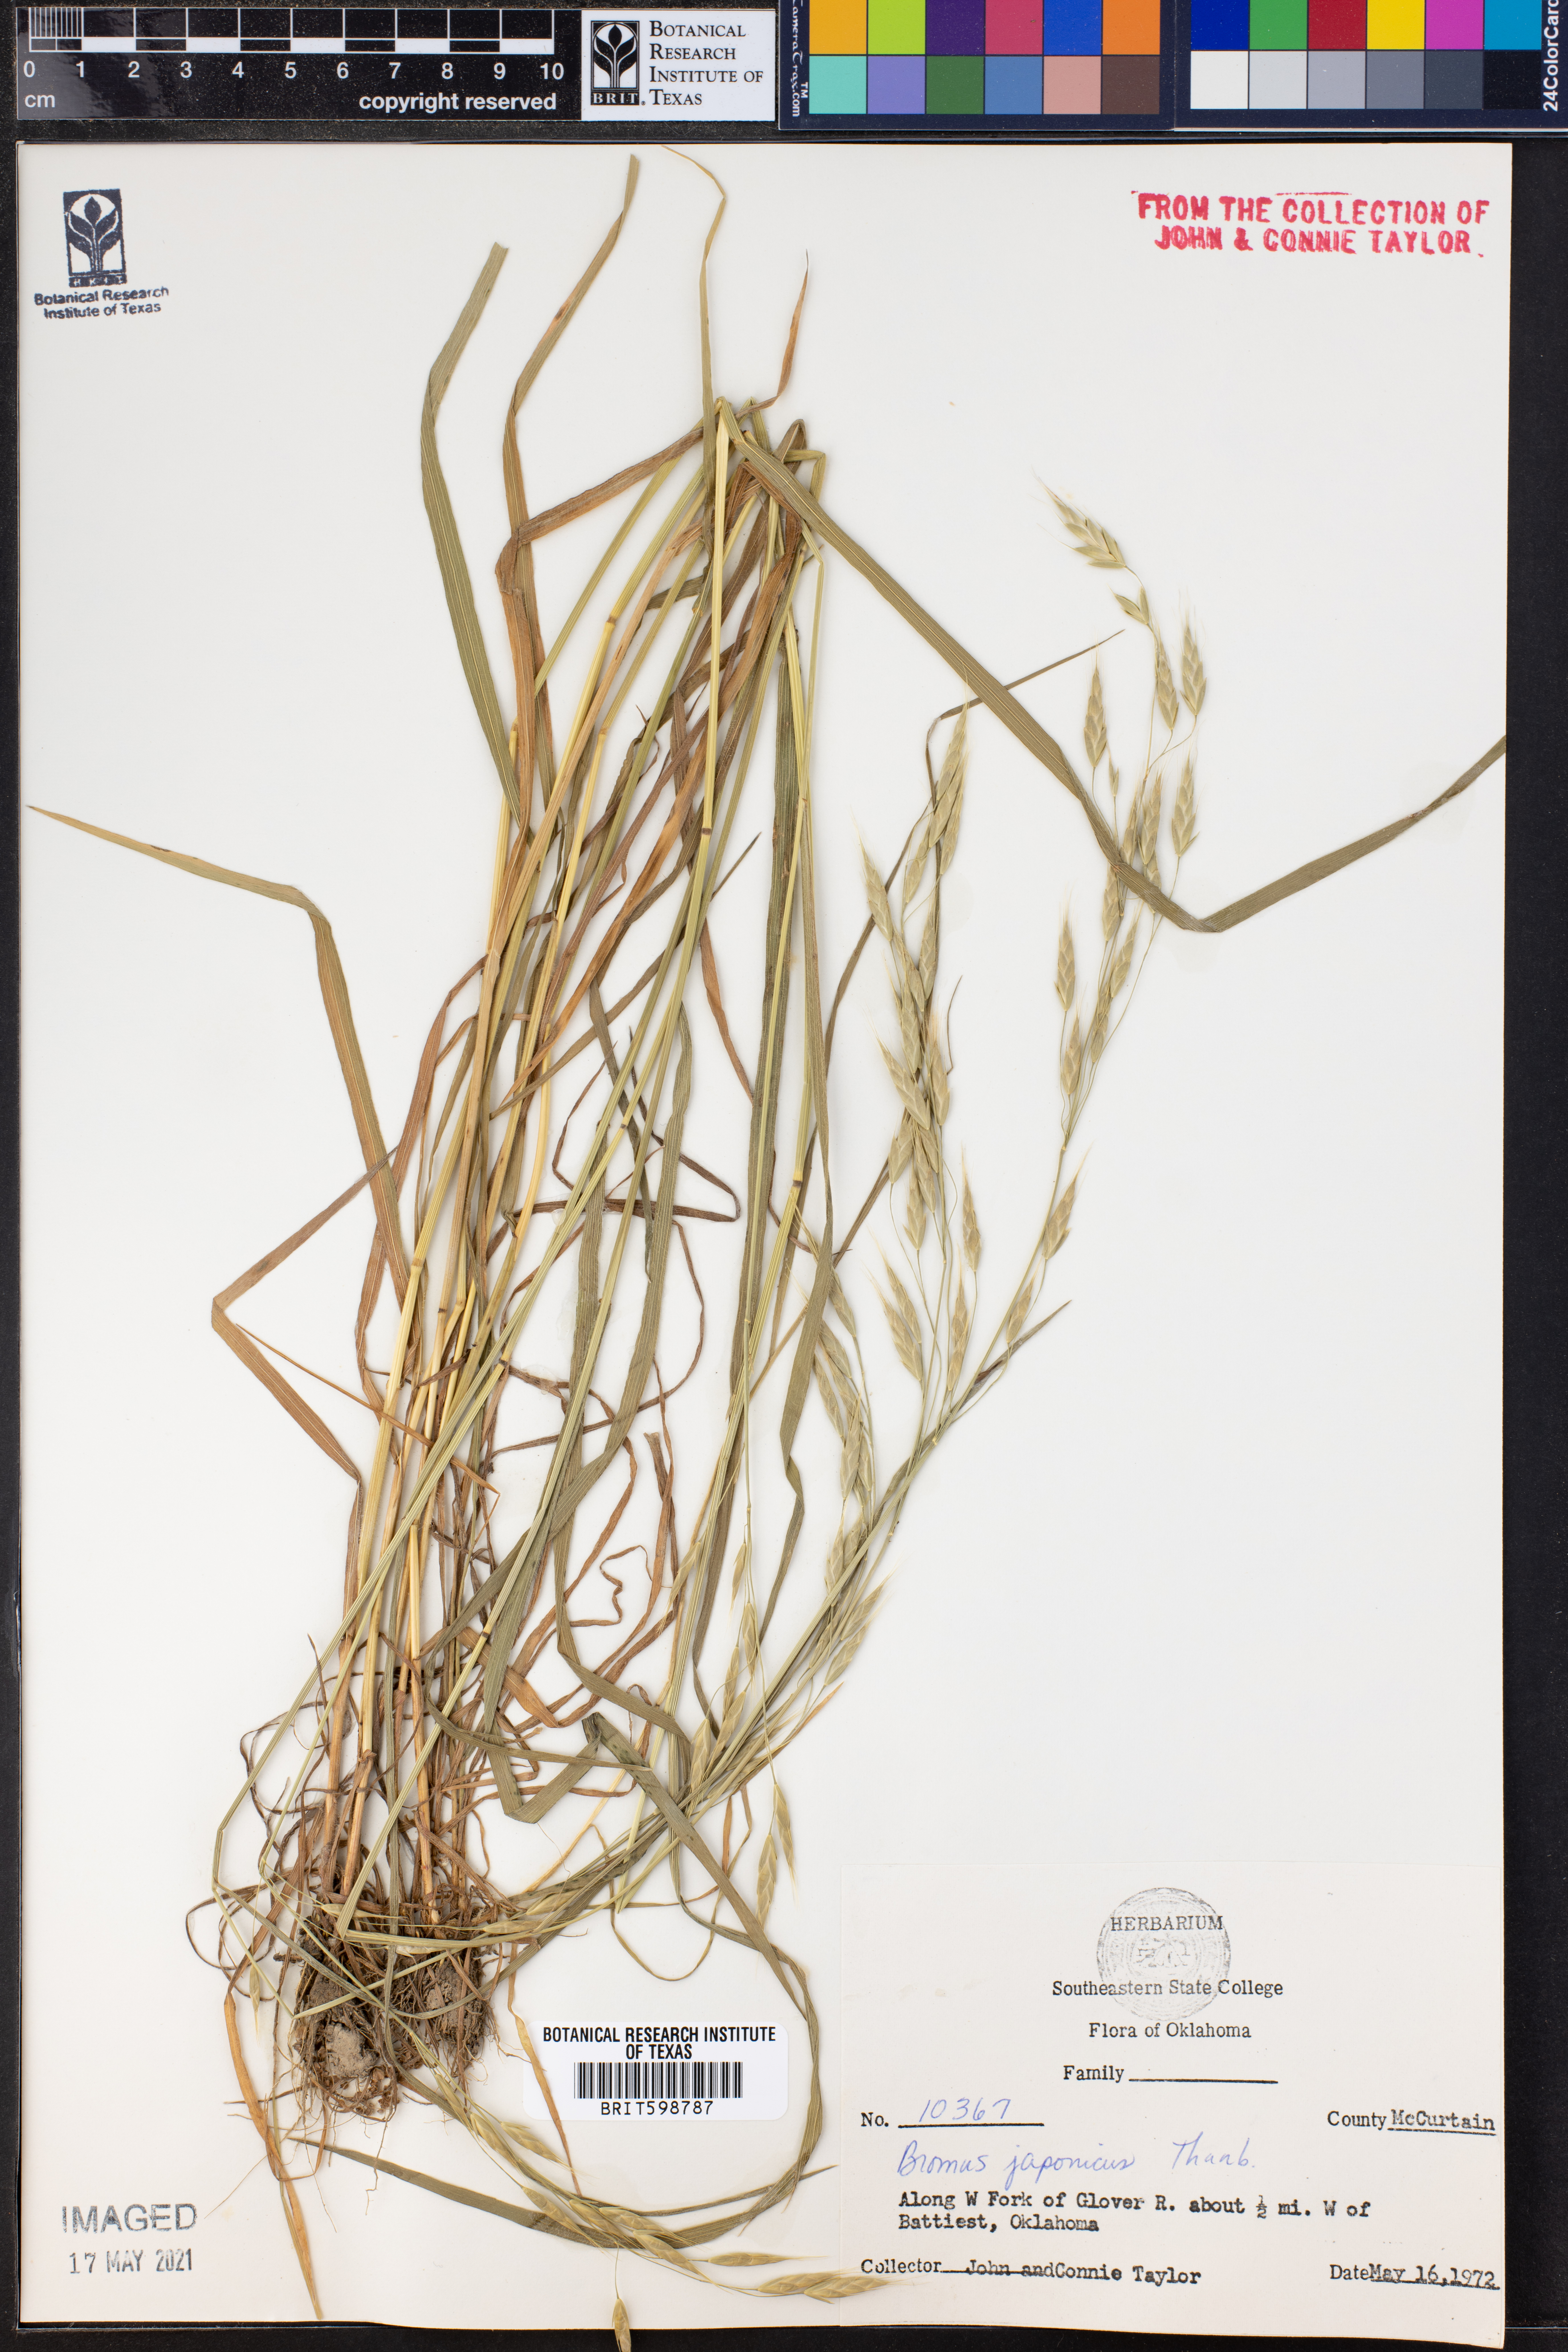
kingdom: Plantae
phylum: Tracheophyta
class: Liliopsida
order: Poales
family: Poaceae
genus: Bromus
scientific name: Bromus japonicus
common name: Japanese brome
